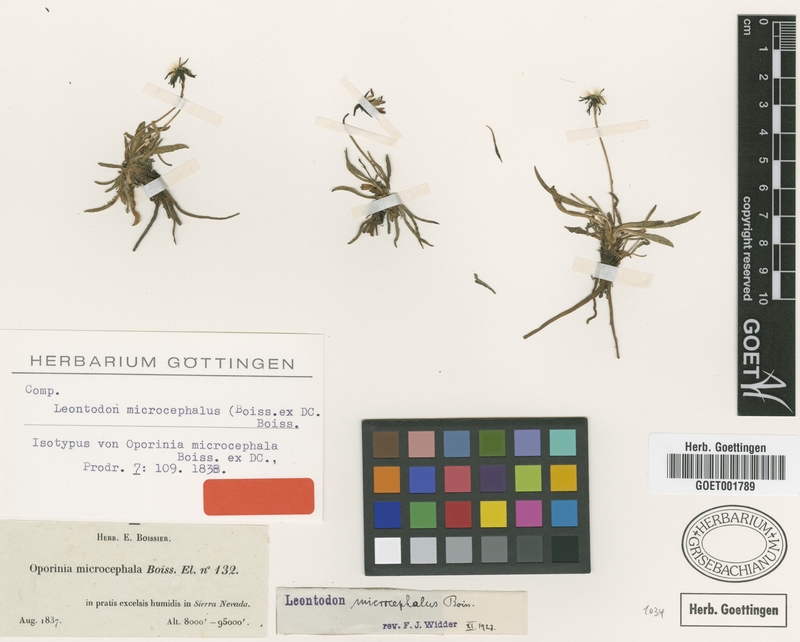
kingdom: Plantae
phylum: Tracheophyta
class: Magnoliopsida
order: Asterales
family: Asteraceae
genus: Scorzoneroides
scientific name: Scorzoneroides microcephala
